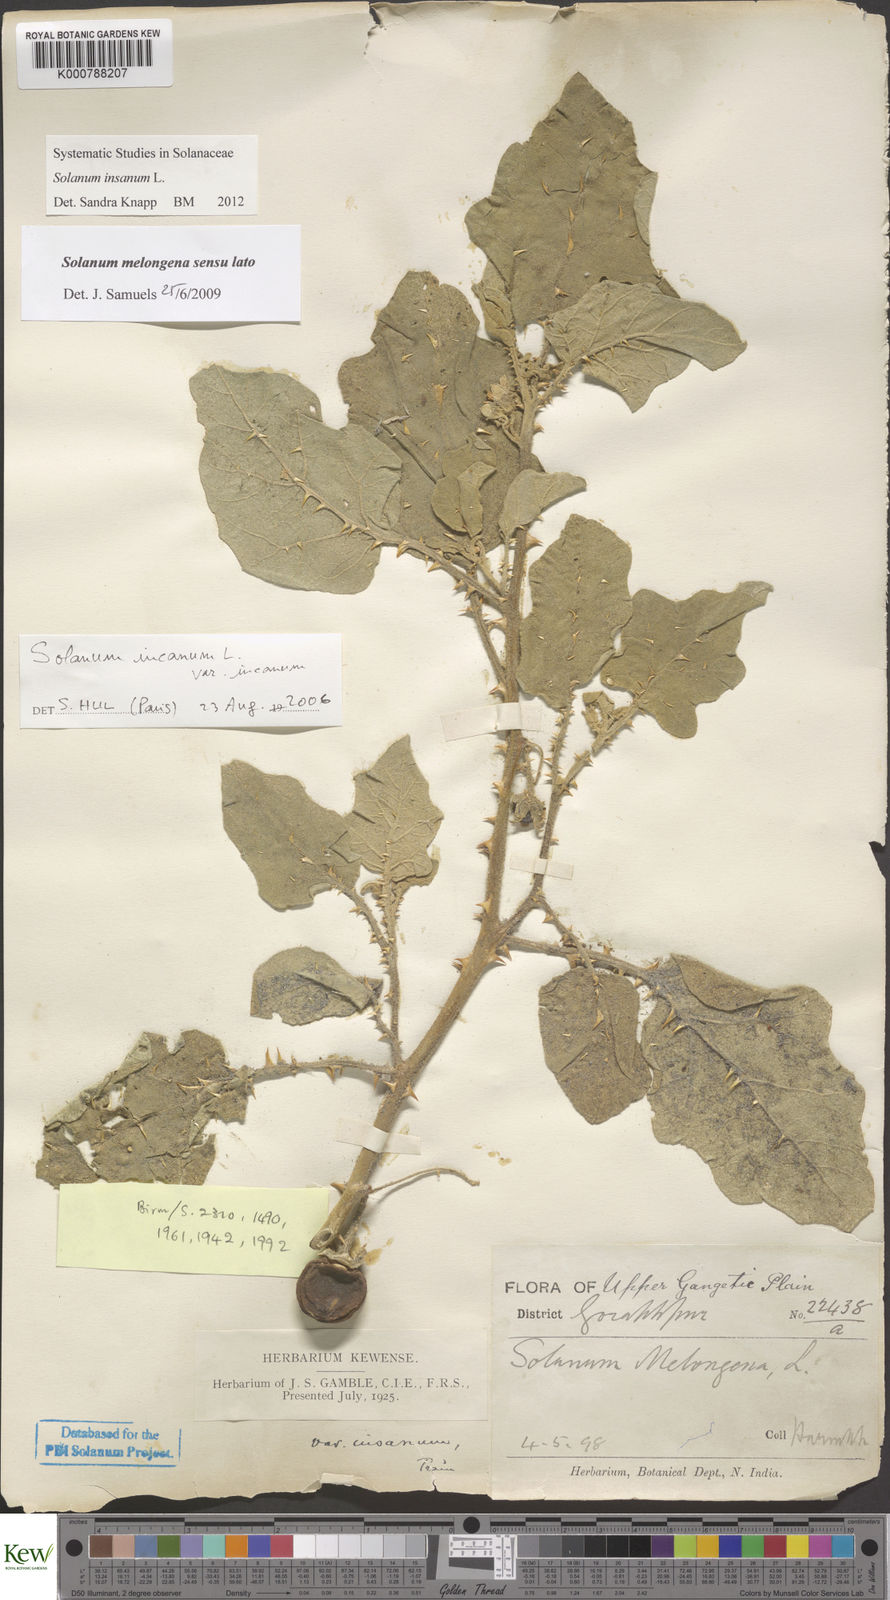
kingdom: Plantae
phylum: Tracheophyta
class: Magnoliopsida
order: Solanales
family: Solanaceae
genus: Solanum
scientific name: Solanum insanum
